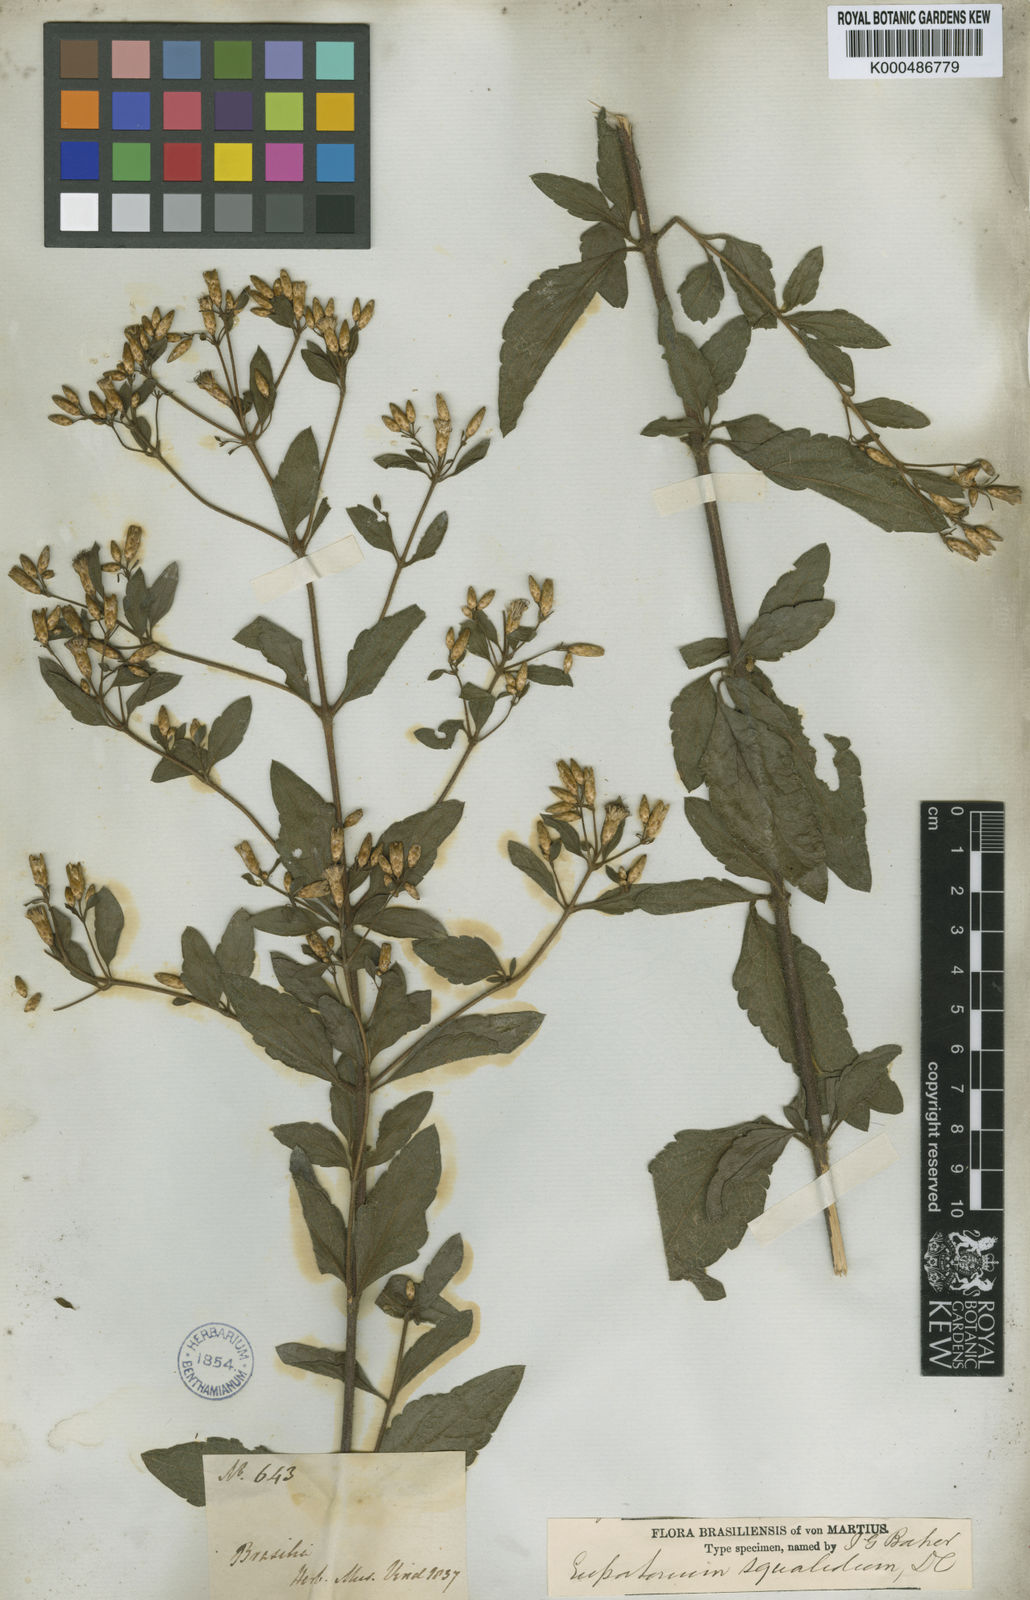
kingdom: Plantae
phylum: Tracheophyta
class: Magnoliopsida
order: Asterales
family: Asteraceae
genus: Chromolaena
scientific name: Chromolaena squalida
